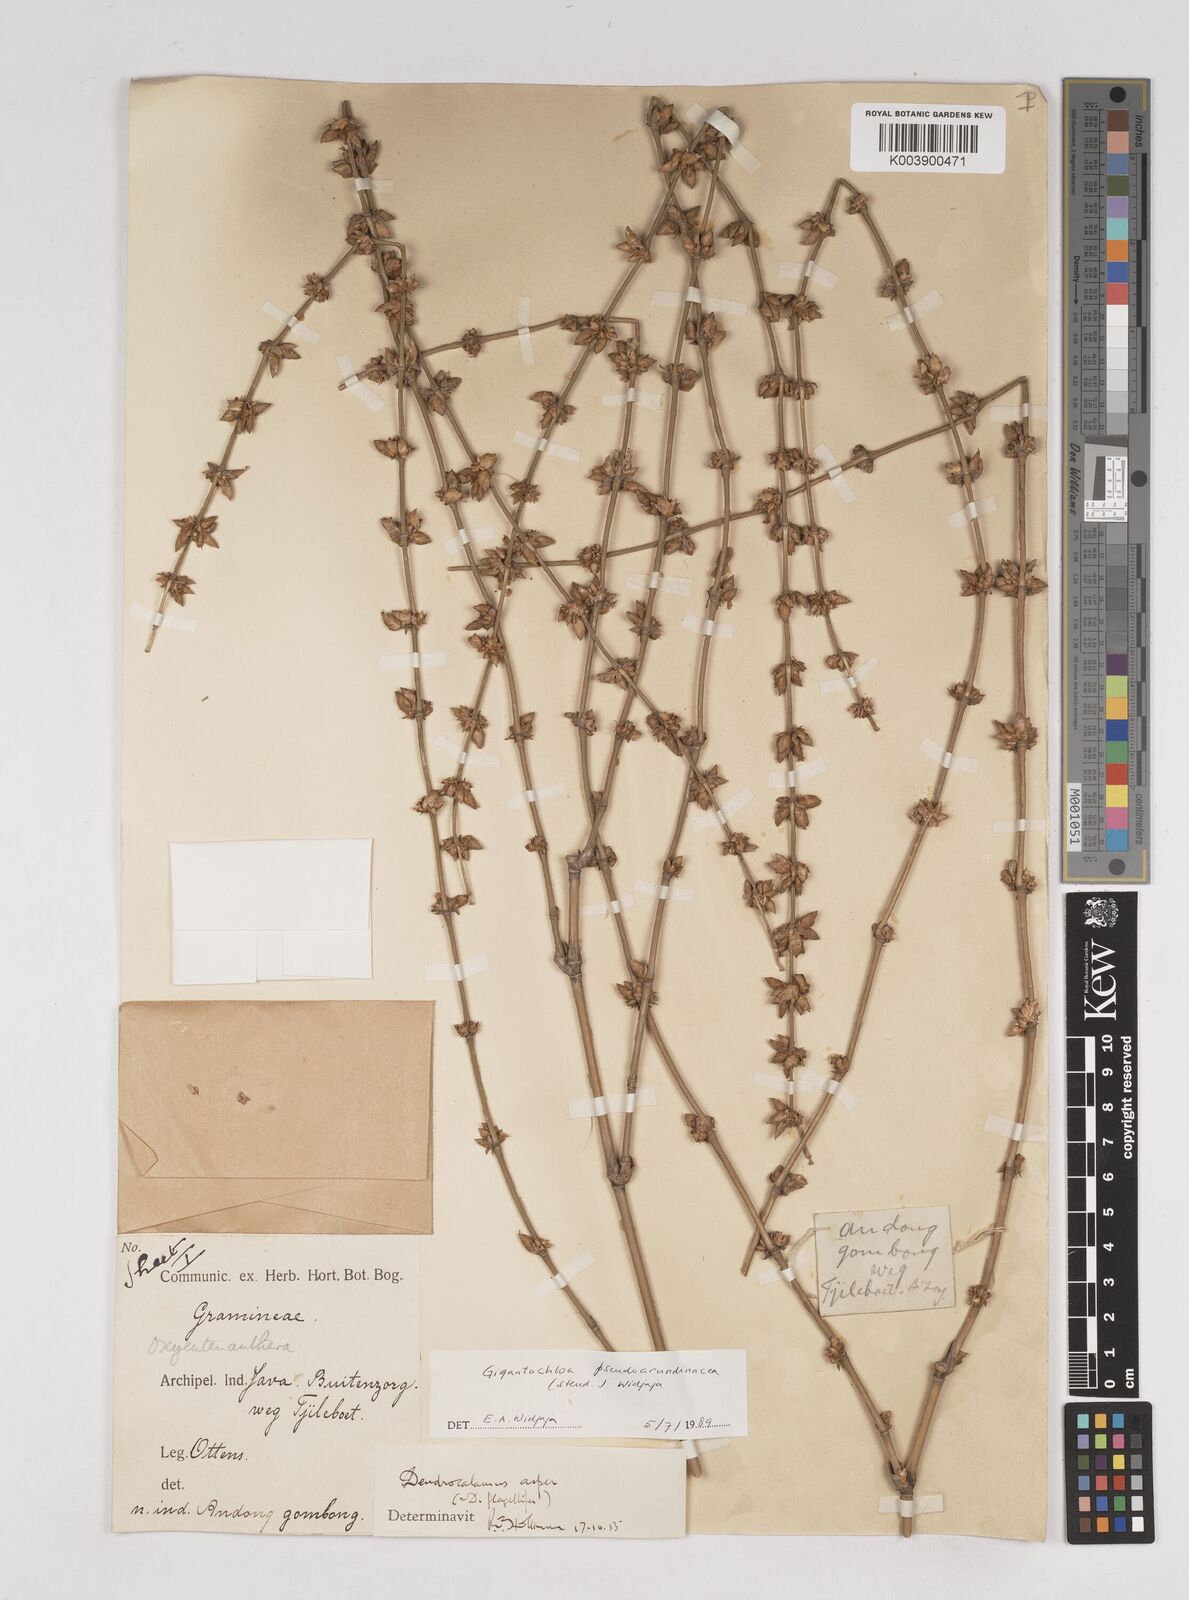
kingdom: Plantae
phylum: Tracheophyta
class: Liliopsida
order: Poales
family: Poaceae
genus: Gigantochloa
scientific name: Gigantochloa verticillata
